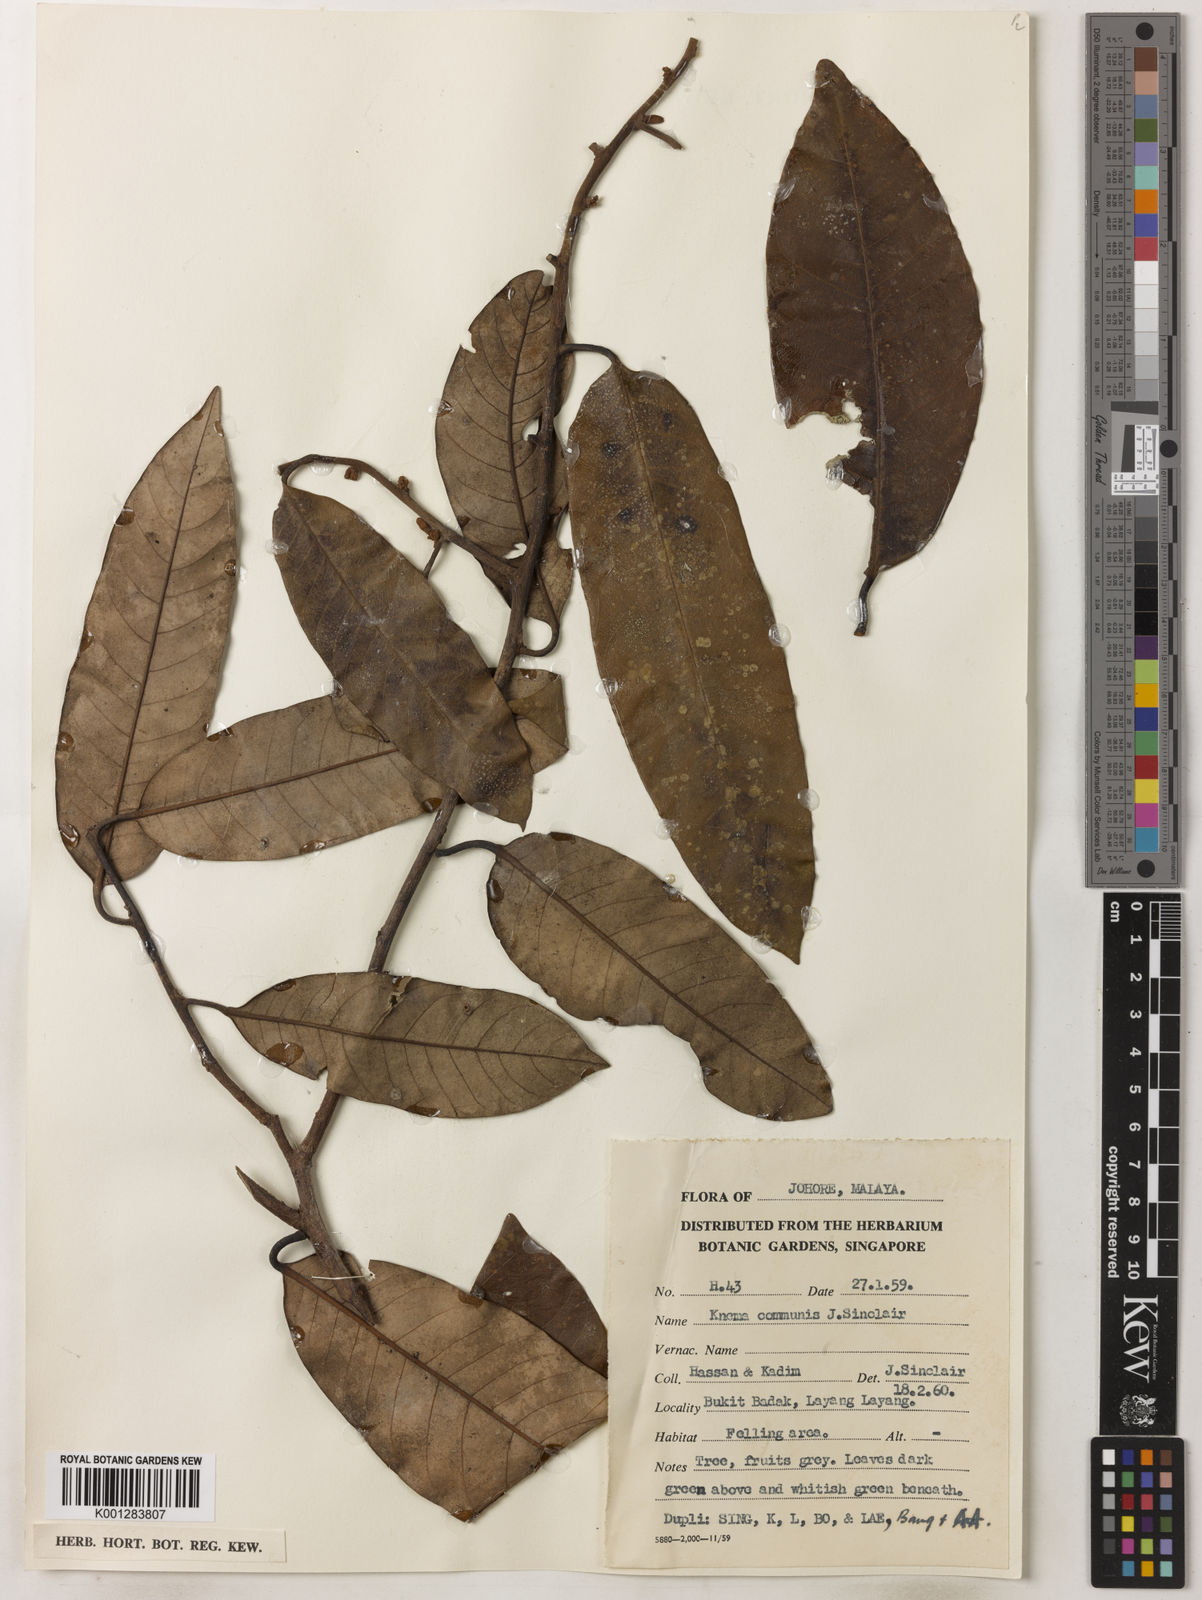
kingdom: Plantae
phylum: Tracheophyta
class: Magnoliopsida
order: Magnoliales
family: Myristicaceae
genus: Knema
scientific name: Knema communis
